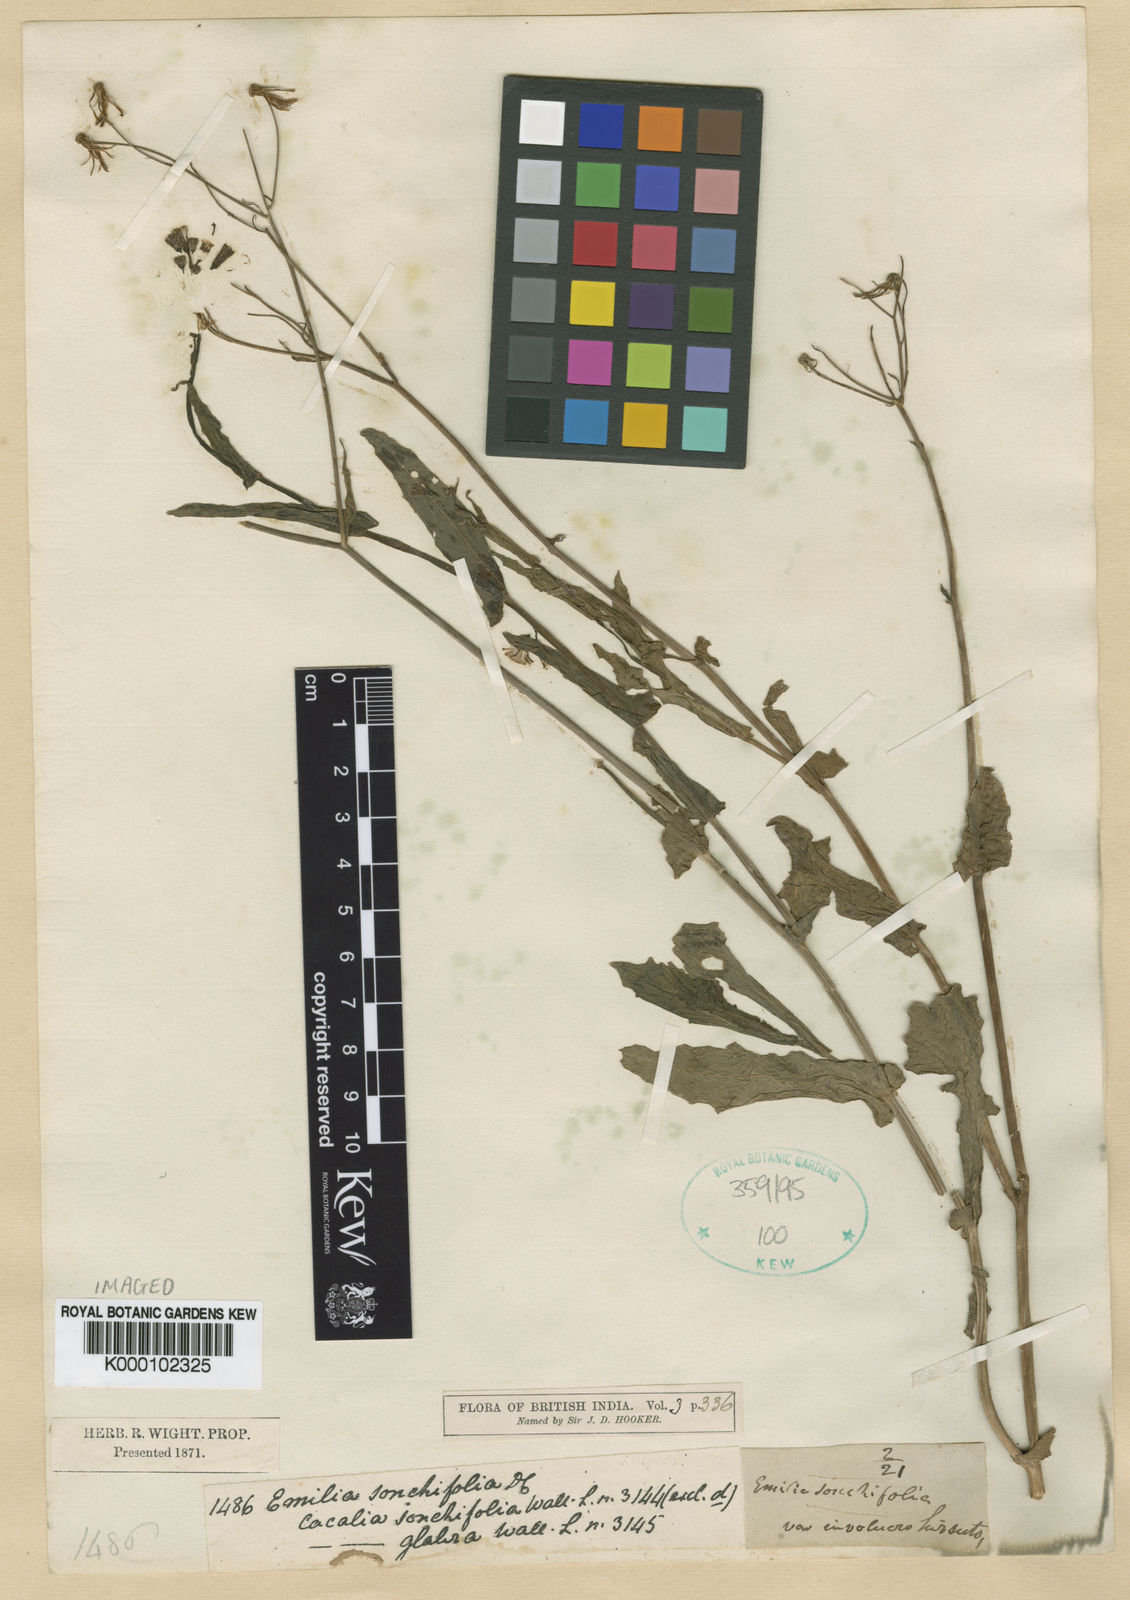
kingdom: Plantae
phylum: Tracheophyta
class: Magnoliopsida
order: Asterales
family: Asteraceae
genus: Emilia
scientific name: Emilia sonchifolia
